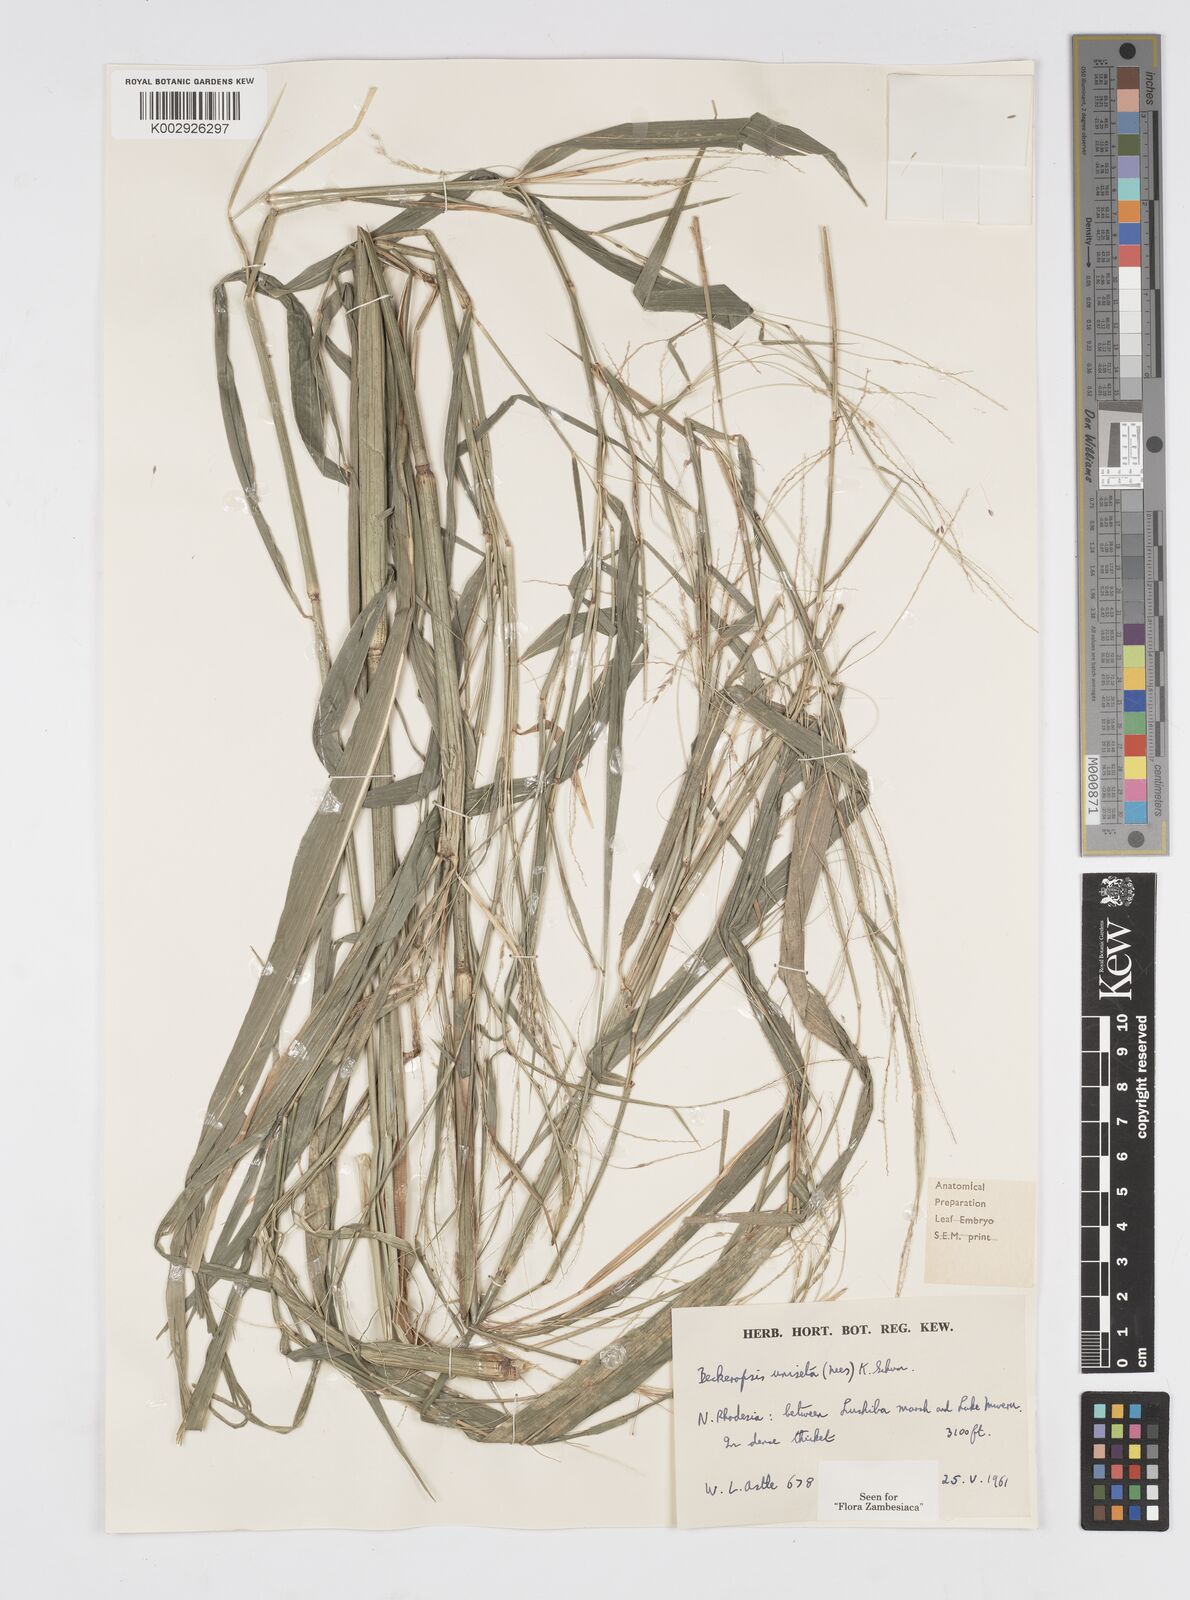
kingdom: Plantae
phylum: Tracheophyta
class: Liliopsida
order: Poales
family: Poaceae
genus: Cenchrus
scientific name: Cenchrus unisetus
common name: Natal grass
